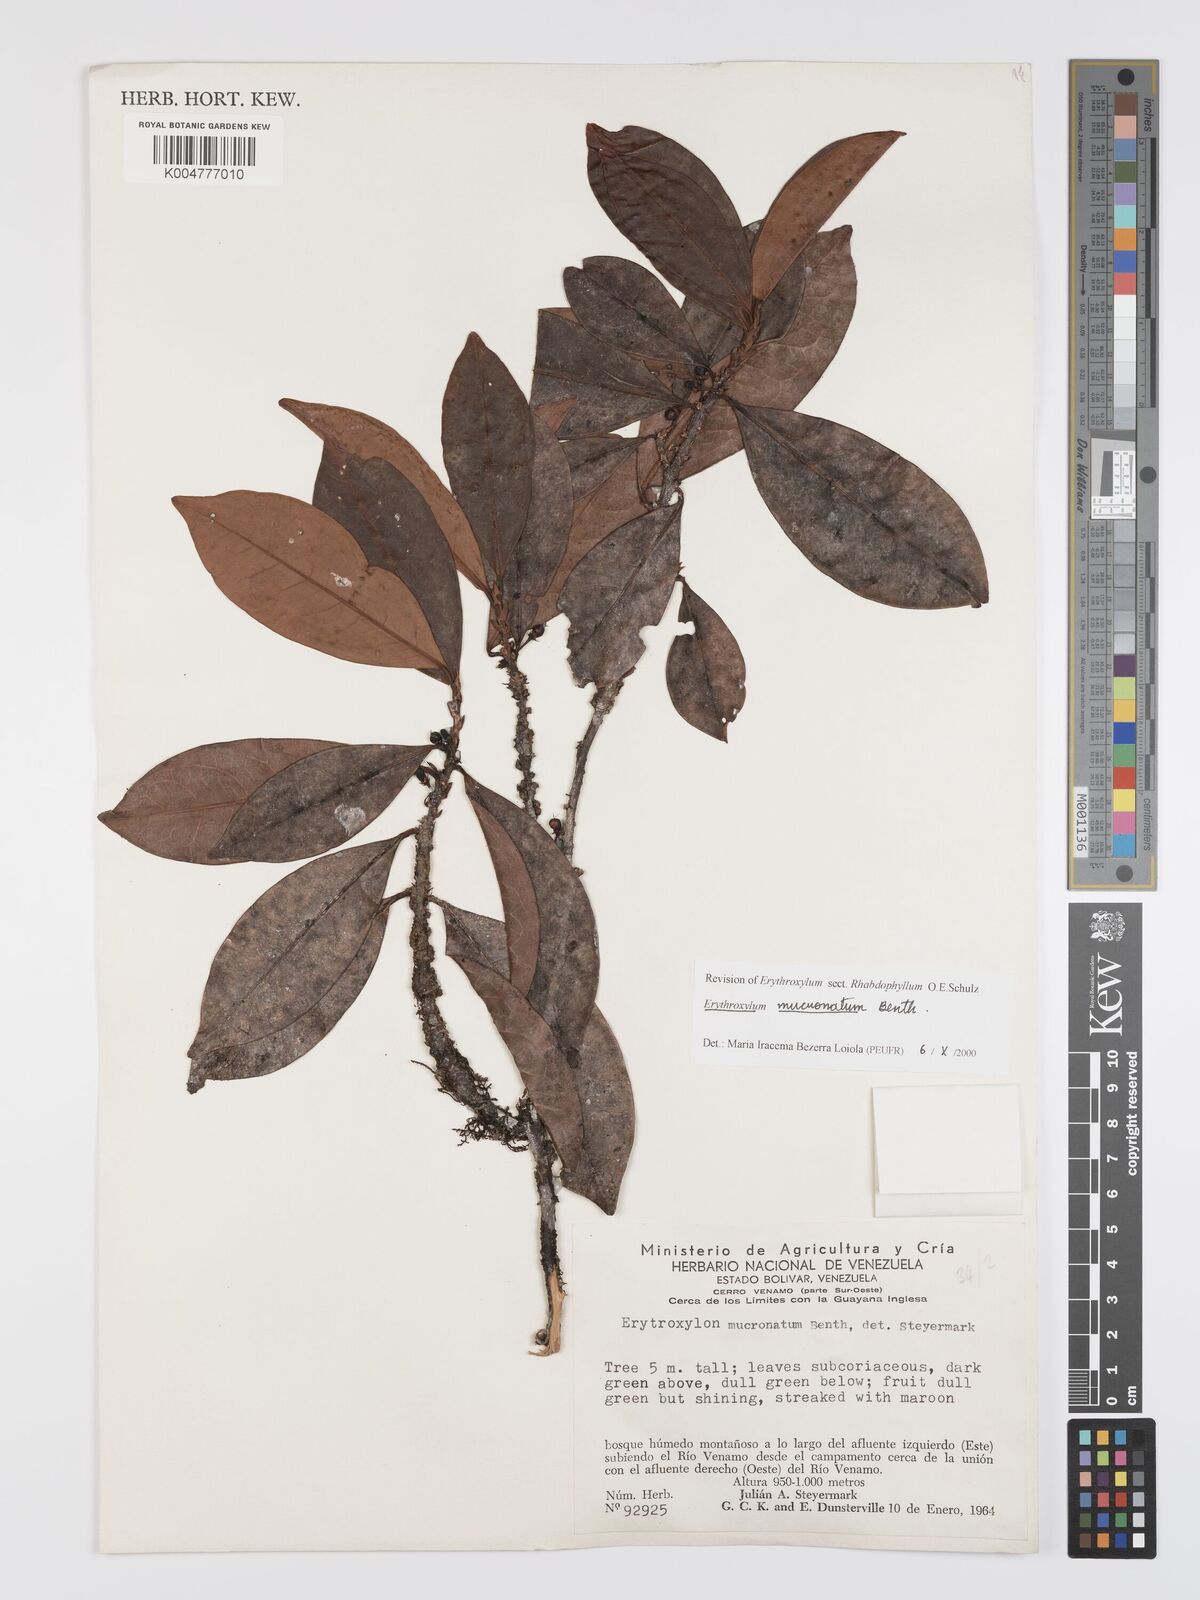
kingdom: Plantae
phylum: Tracheophyta
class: Magnoliopsida
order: Malpighiales
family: Erythroxylaceae
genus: Erythroxylum
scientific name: Erythroxylum mucronatum
